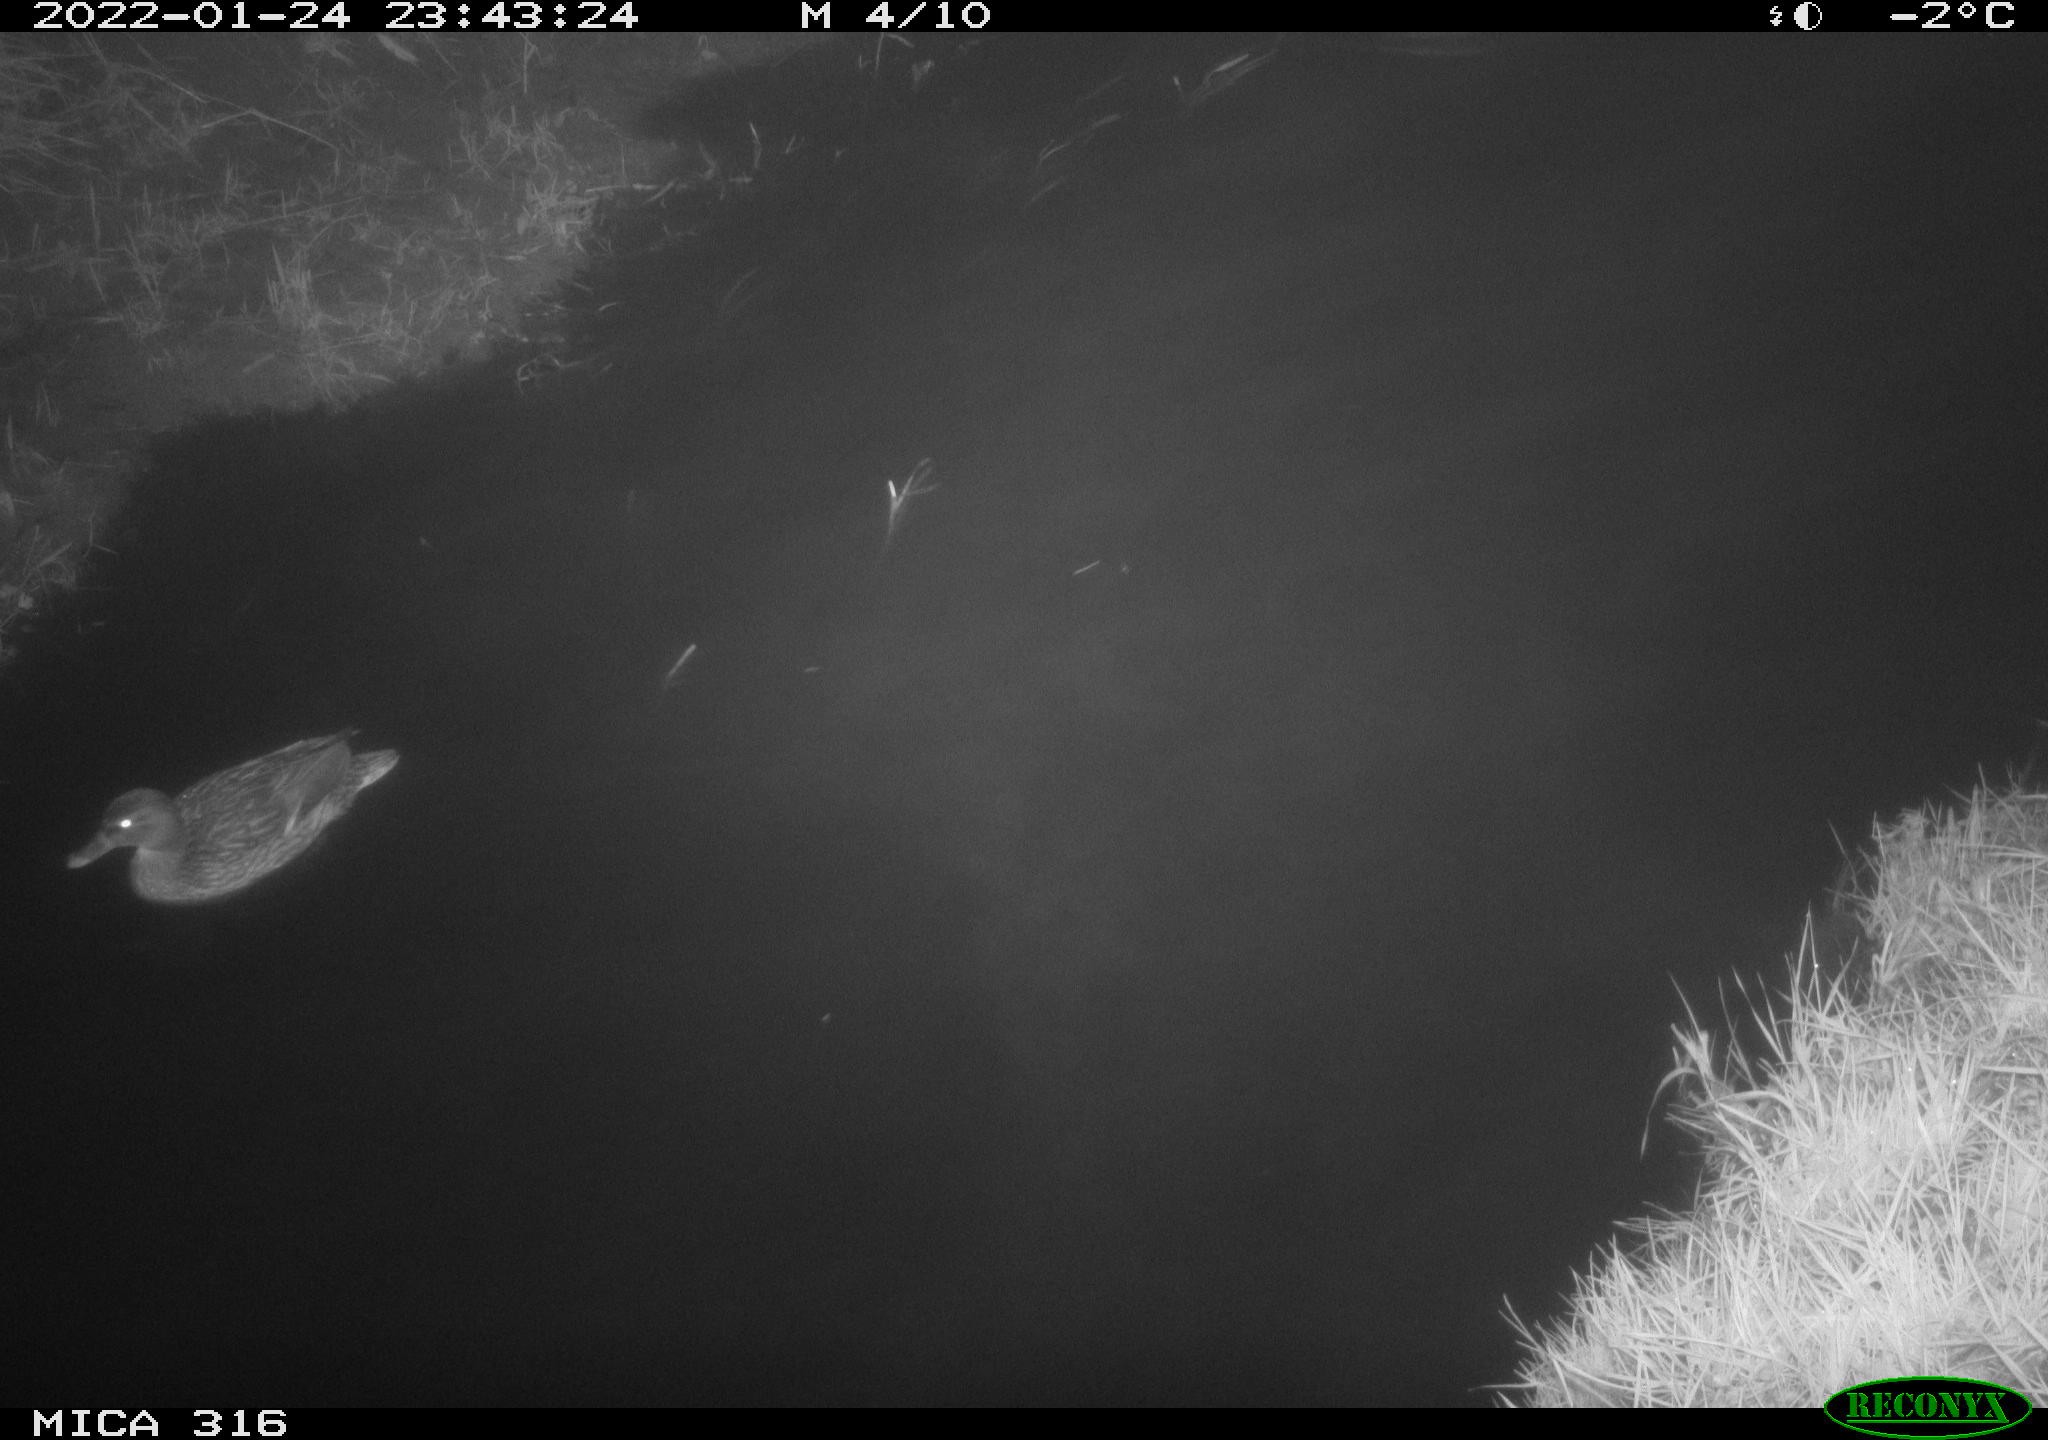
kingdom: Animalia
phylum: Chordata
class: Aves
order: Anseriformes
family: Anatidae
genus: Anas
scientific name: Anas platyrhynchos
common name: Mallard
